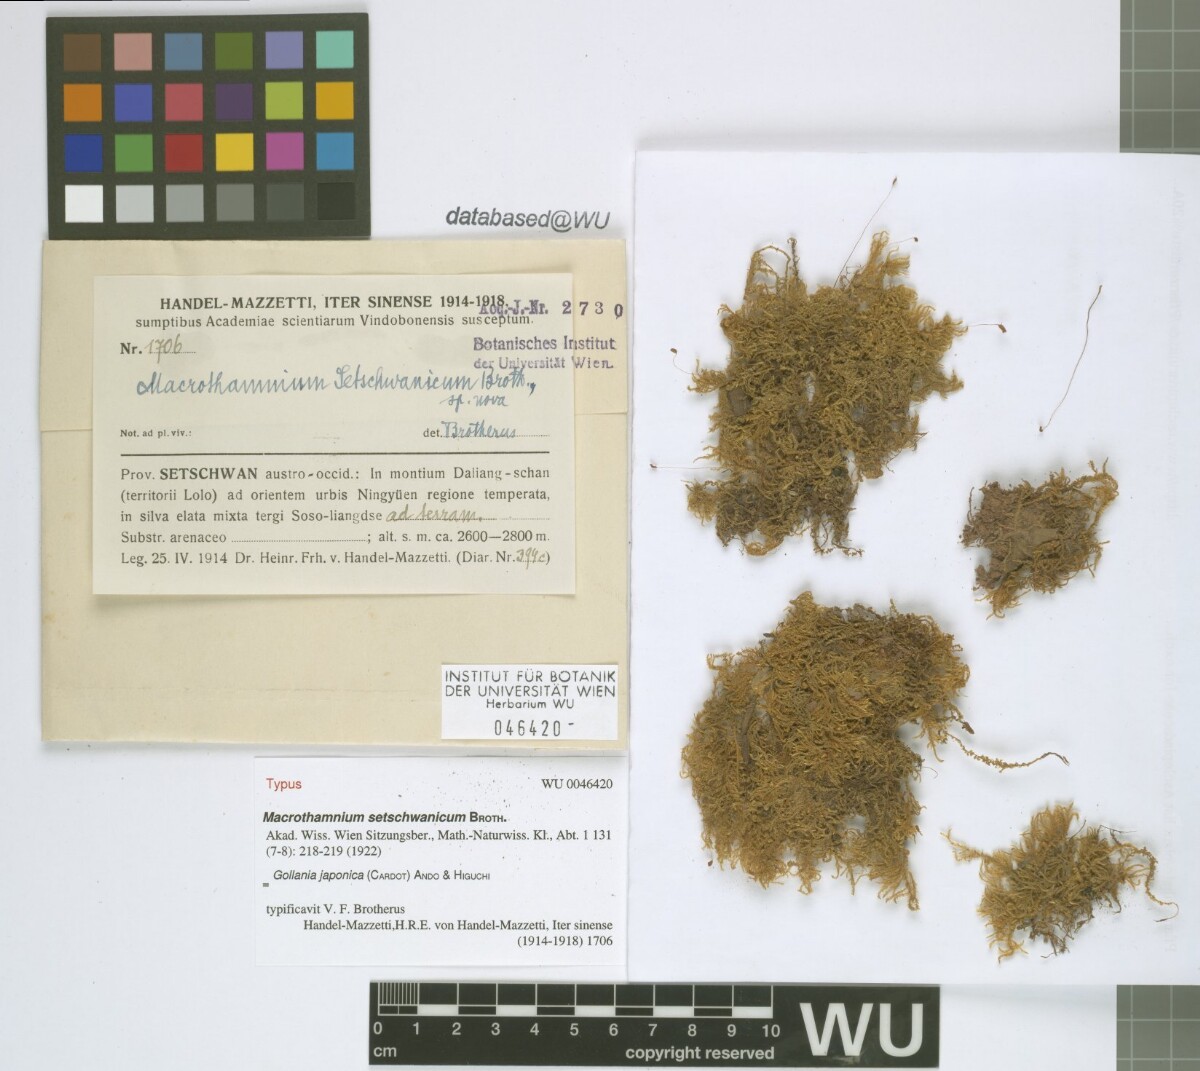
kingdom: Plantae
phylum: Bryophyta
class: Bryopsida
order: Hypnales
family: Hypnaceae
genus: Gollania
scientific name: Gollania setschwanica
